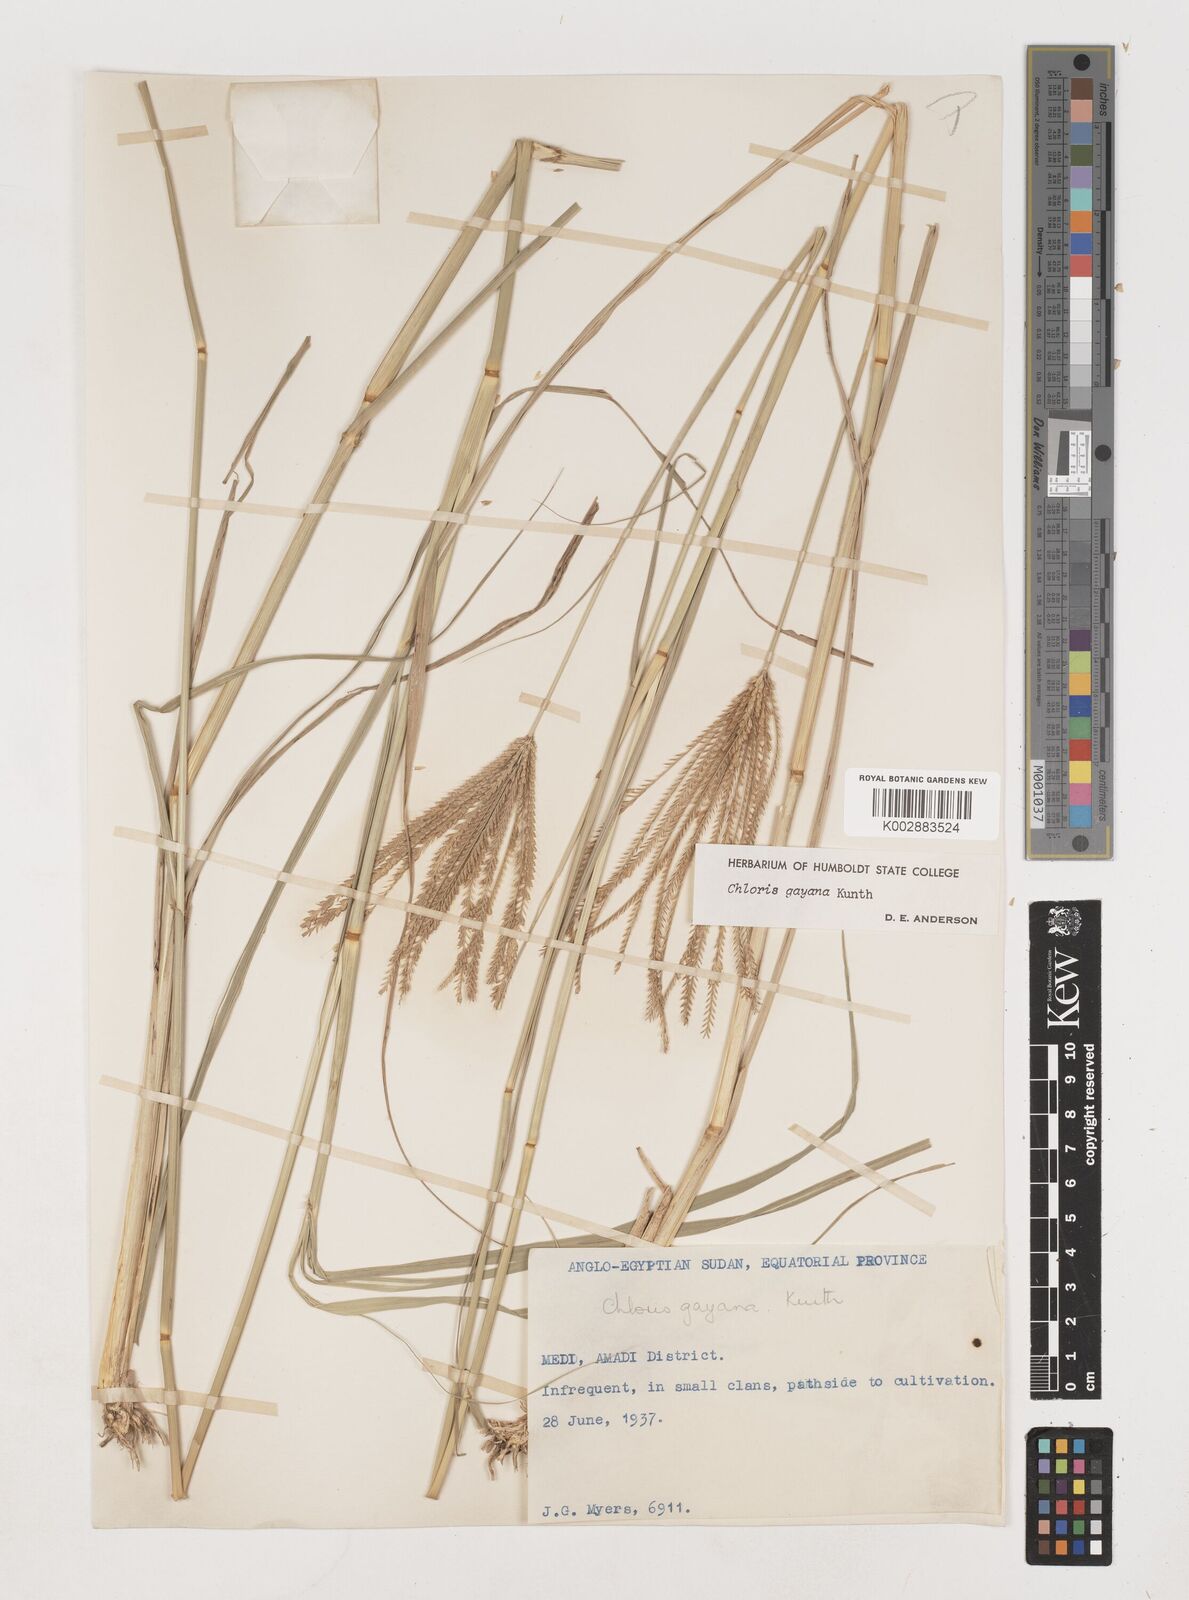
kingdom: Plantae
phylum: Tracheophyta
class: Liliopsida
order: Poales
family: Poaceae
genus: Chloris
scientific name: Chloris gayana
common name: Rhodes grass
